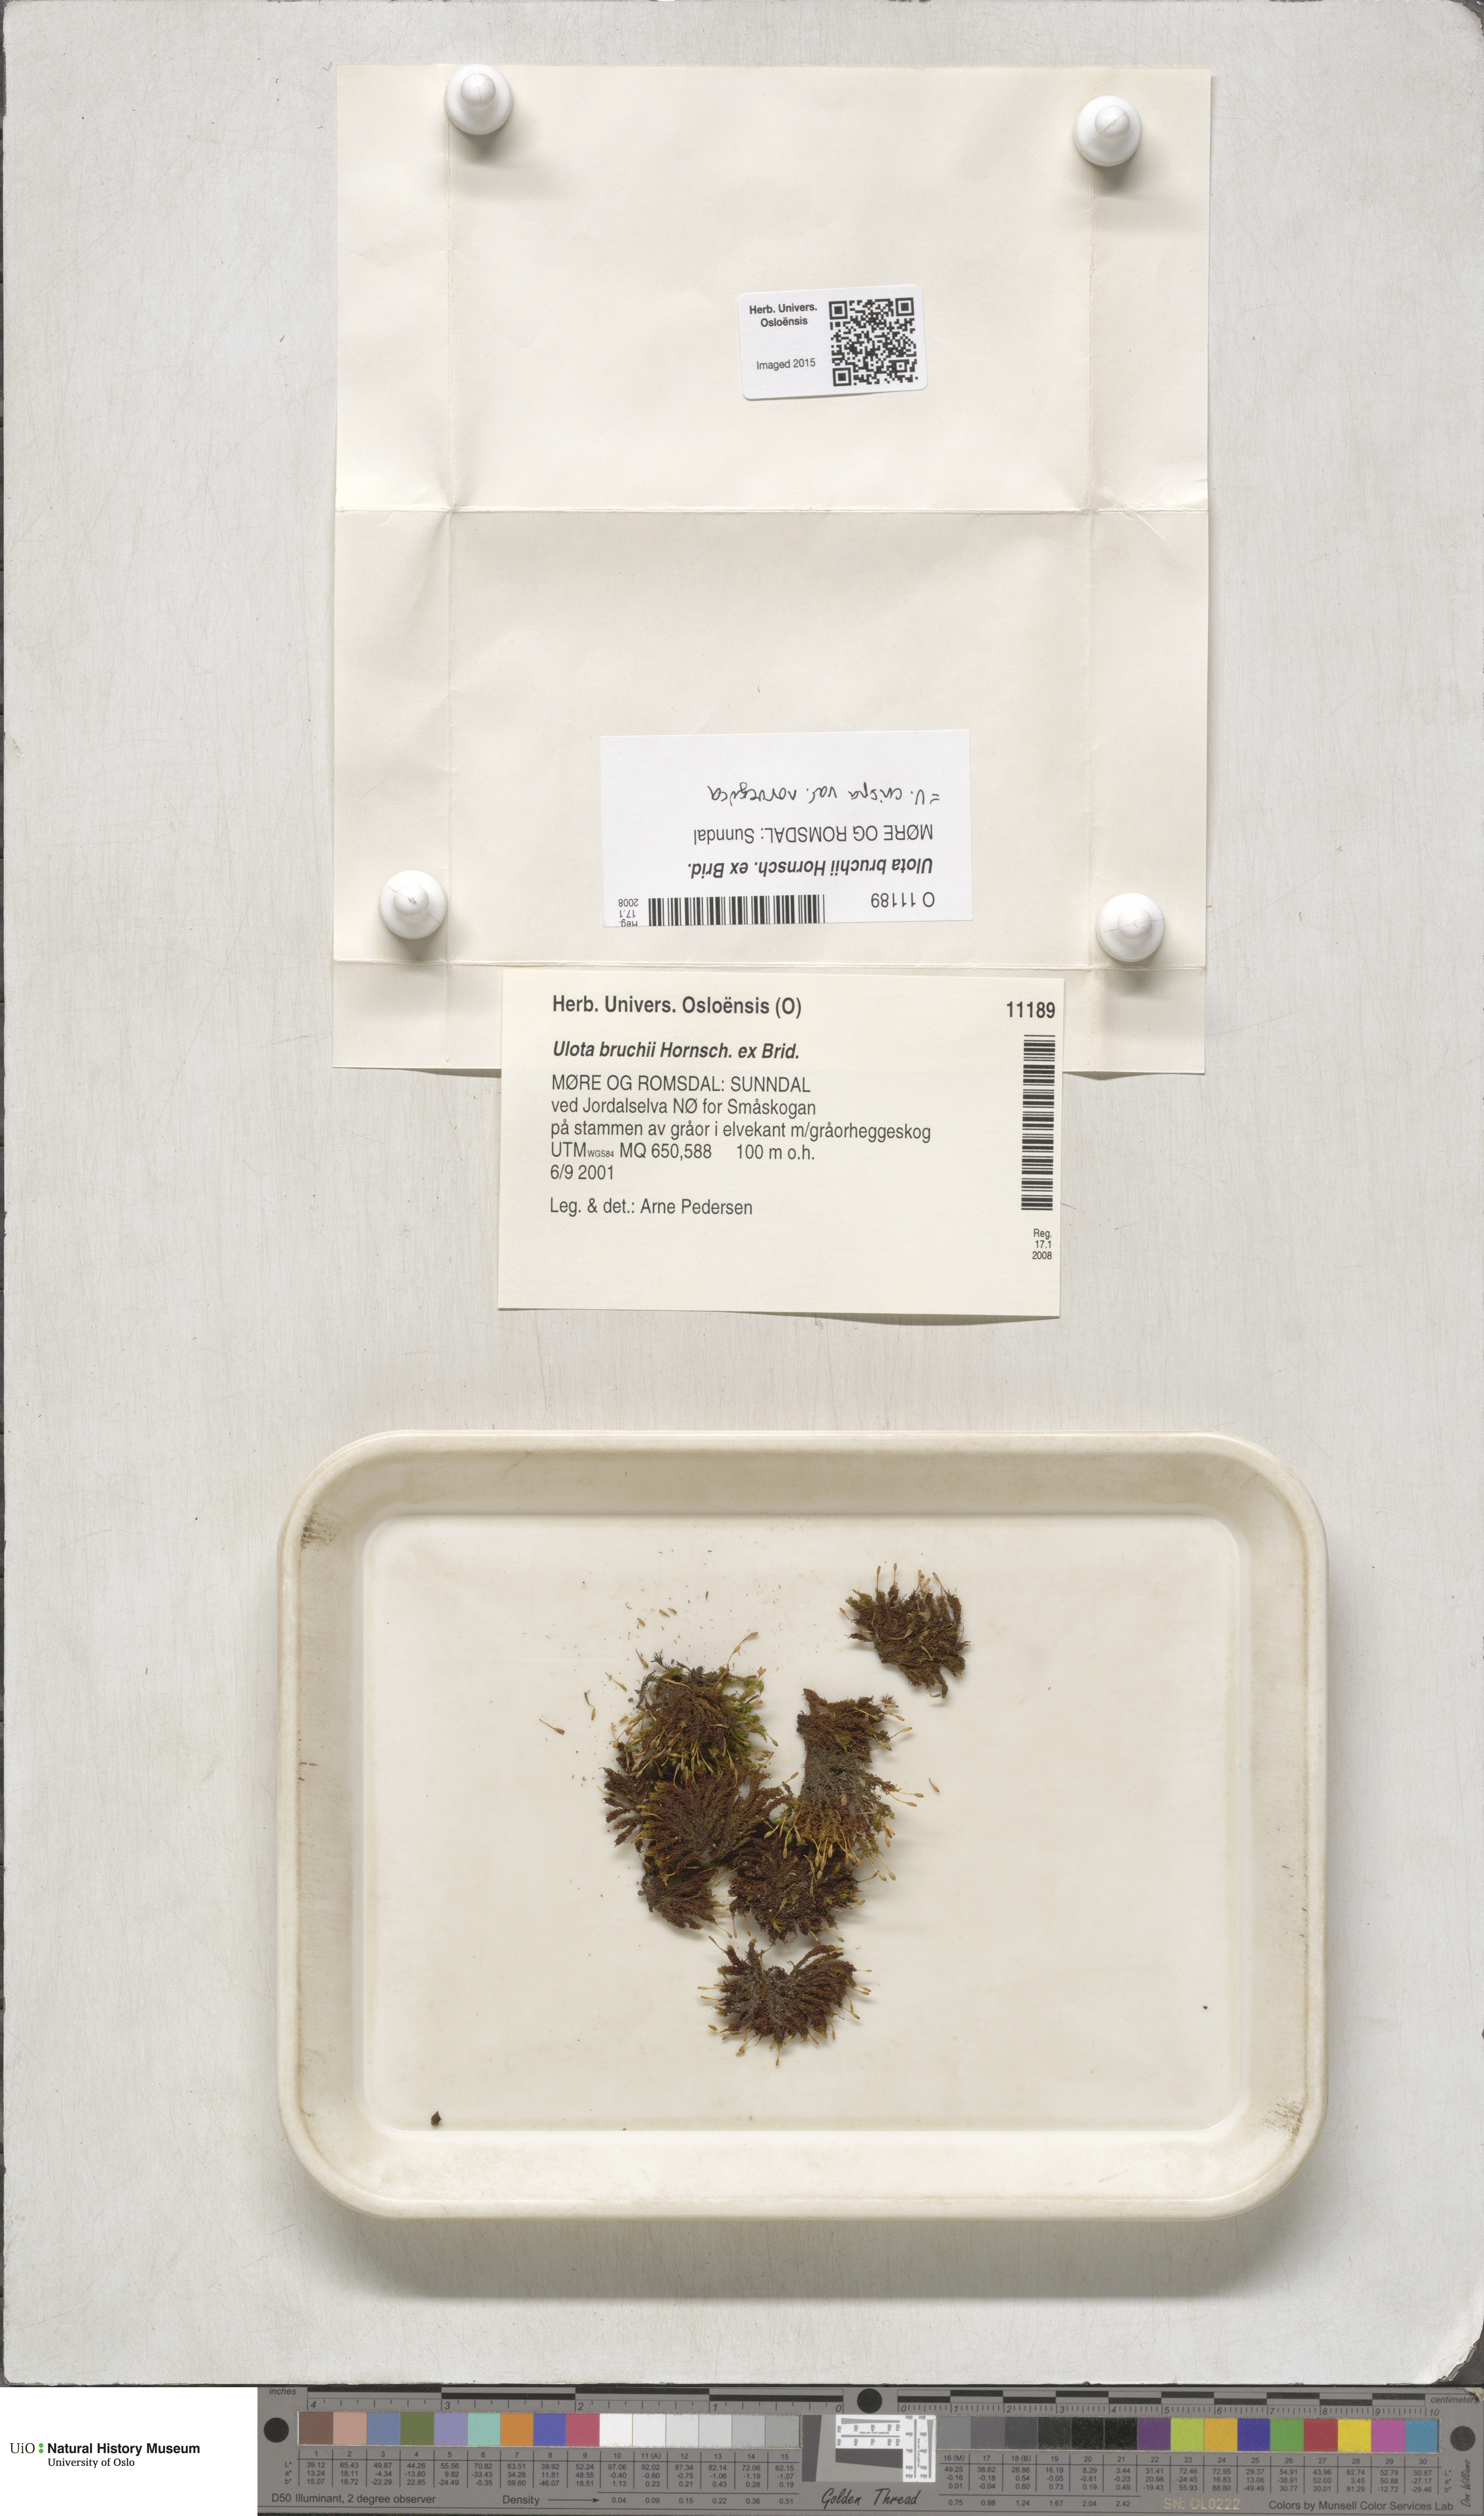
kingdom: Plantae
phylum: Bryophyta
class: Bryopsida
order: Orthotrichales
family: Orthotrichaceae
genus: Ulota
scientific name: Ulota bruchii
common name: Bruch's pincushion
